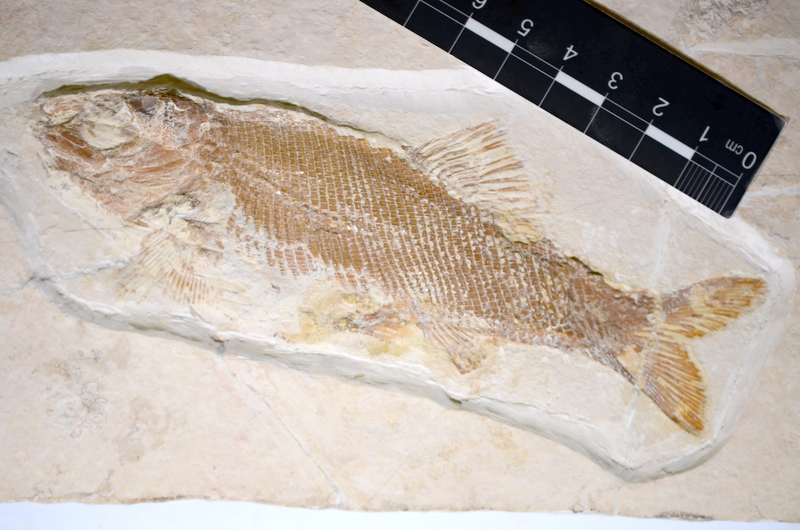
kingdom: Animalia
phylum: Chordata
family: Ophiopsiellidae
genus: Furo
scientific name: Furo longiserratus
